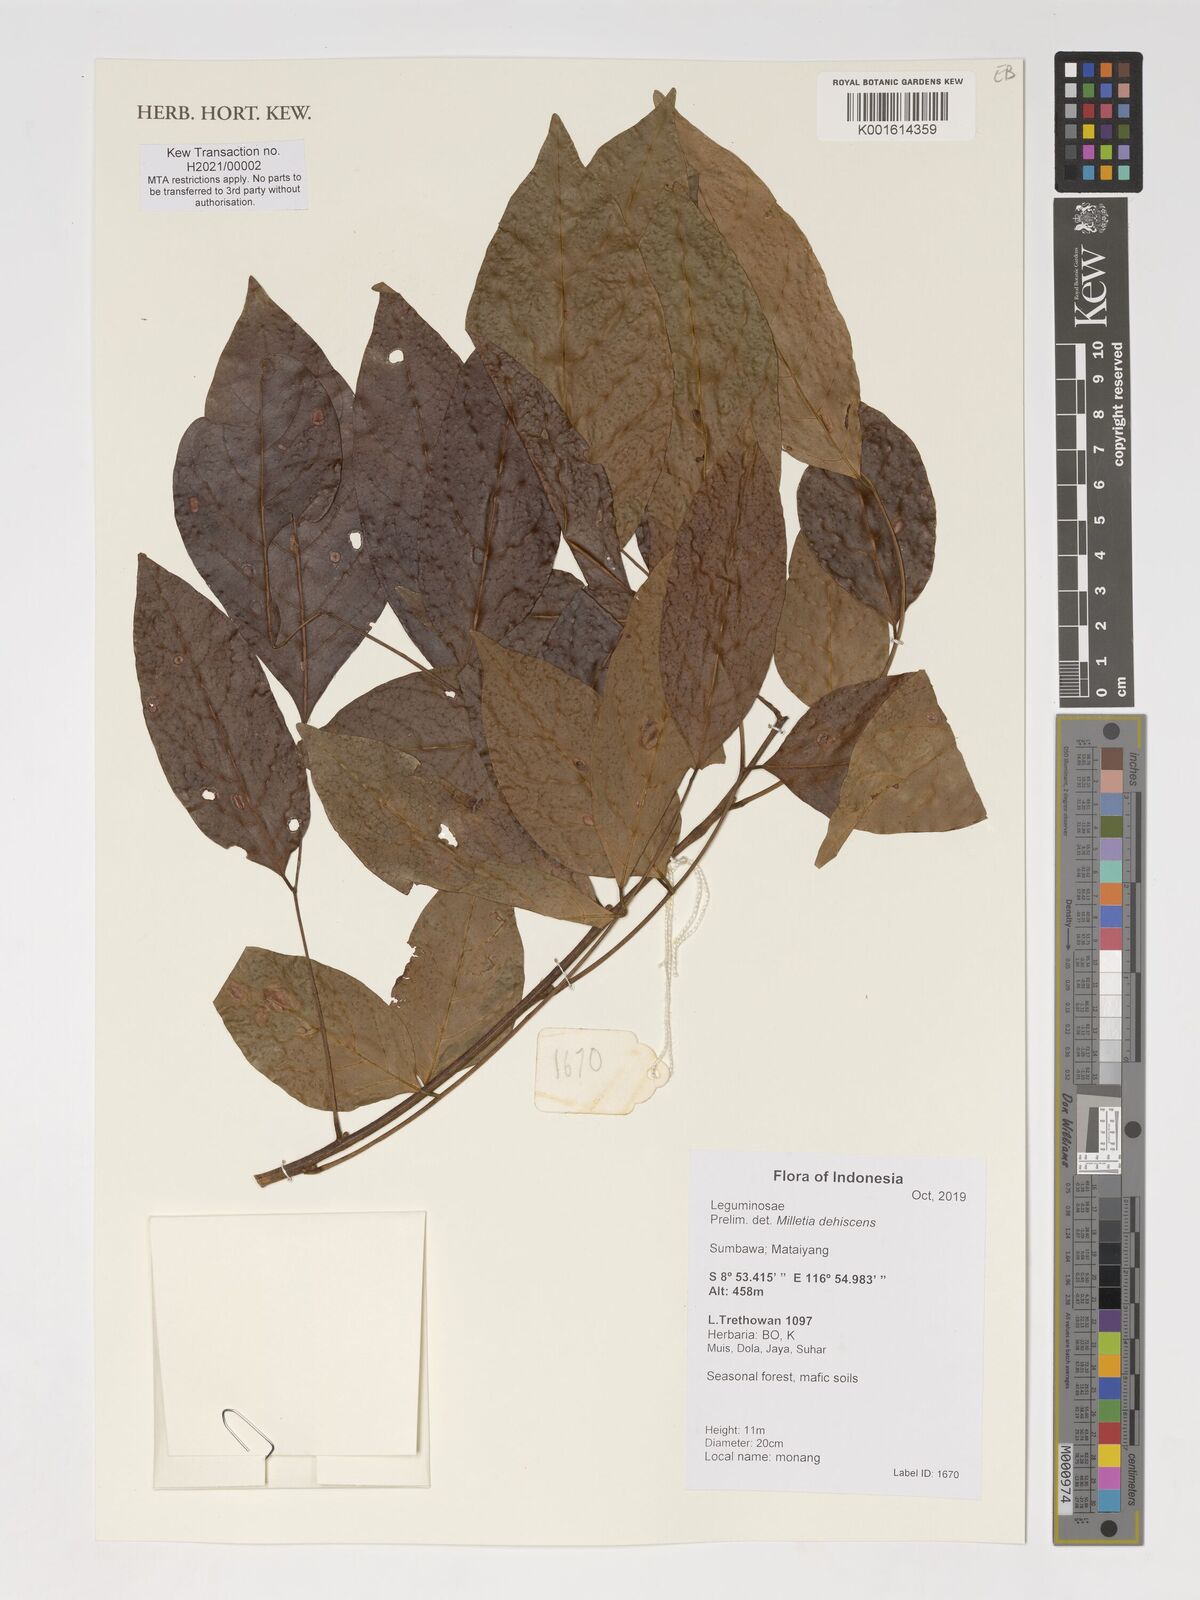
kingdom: Plantae
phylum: Tracheophyta
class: Magnoliopsida
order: Fabales
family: Fabaceae
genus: Millettia
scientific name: Millettia xylocarpa
